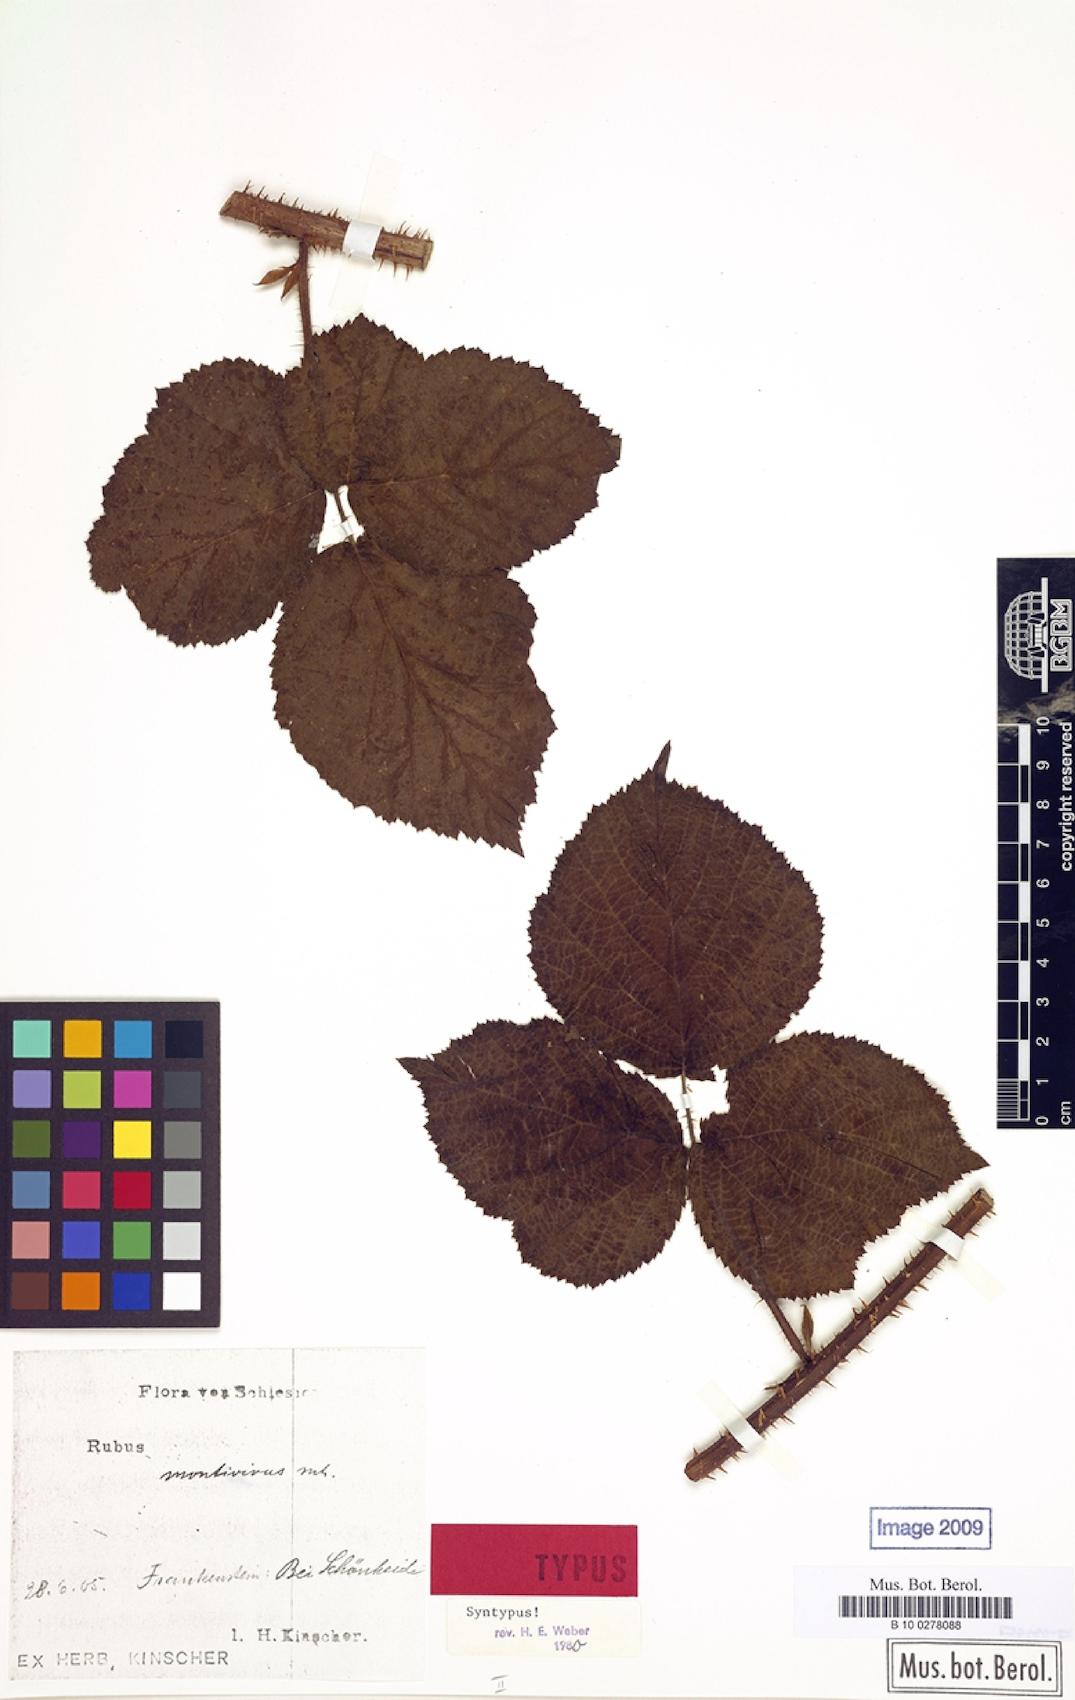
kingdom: Plantae
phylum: Tracheophyta
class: Magnoliopsida
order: Rosales
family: Rosaceae
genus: Rubus
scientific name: Rubus dollnensis
